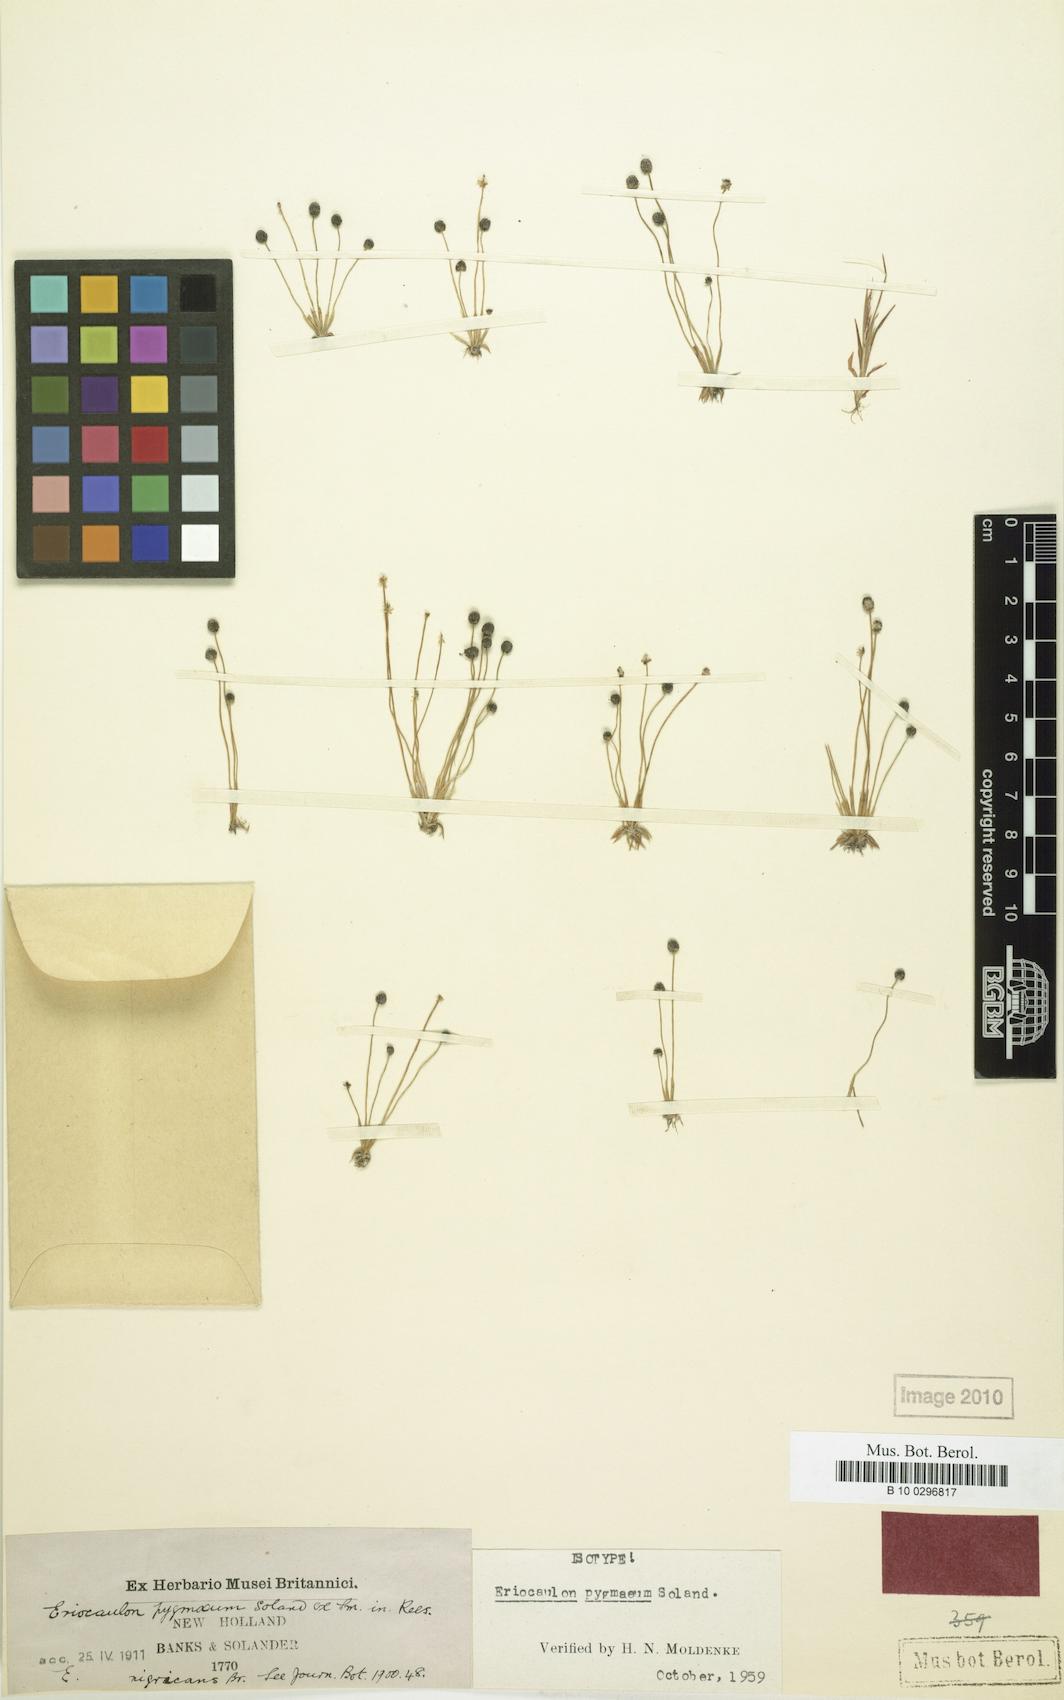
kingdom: Plantae
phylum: Tracheophyta
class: Liliopsida
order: Poales
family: Eriocaulaceae
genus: Eriocaulon
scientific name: Eriocaulon pygmaeum
